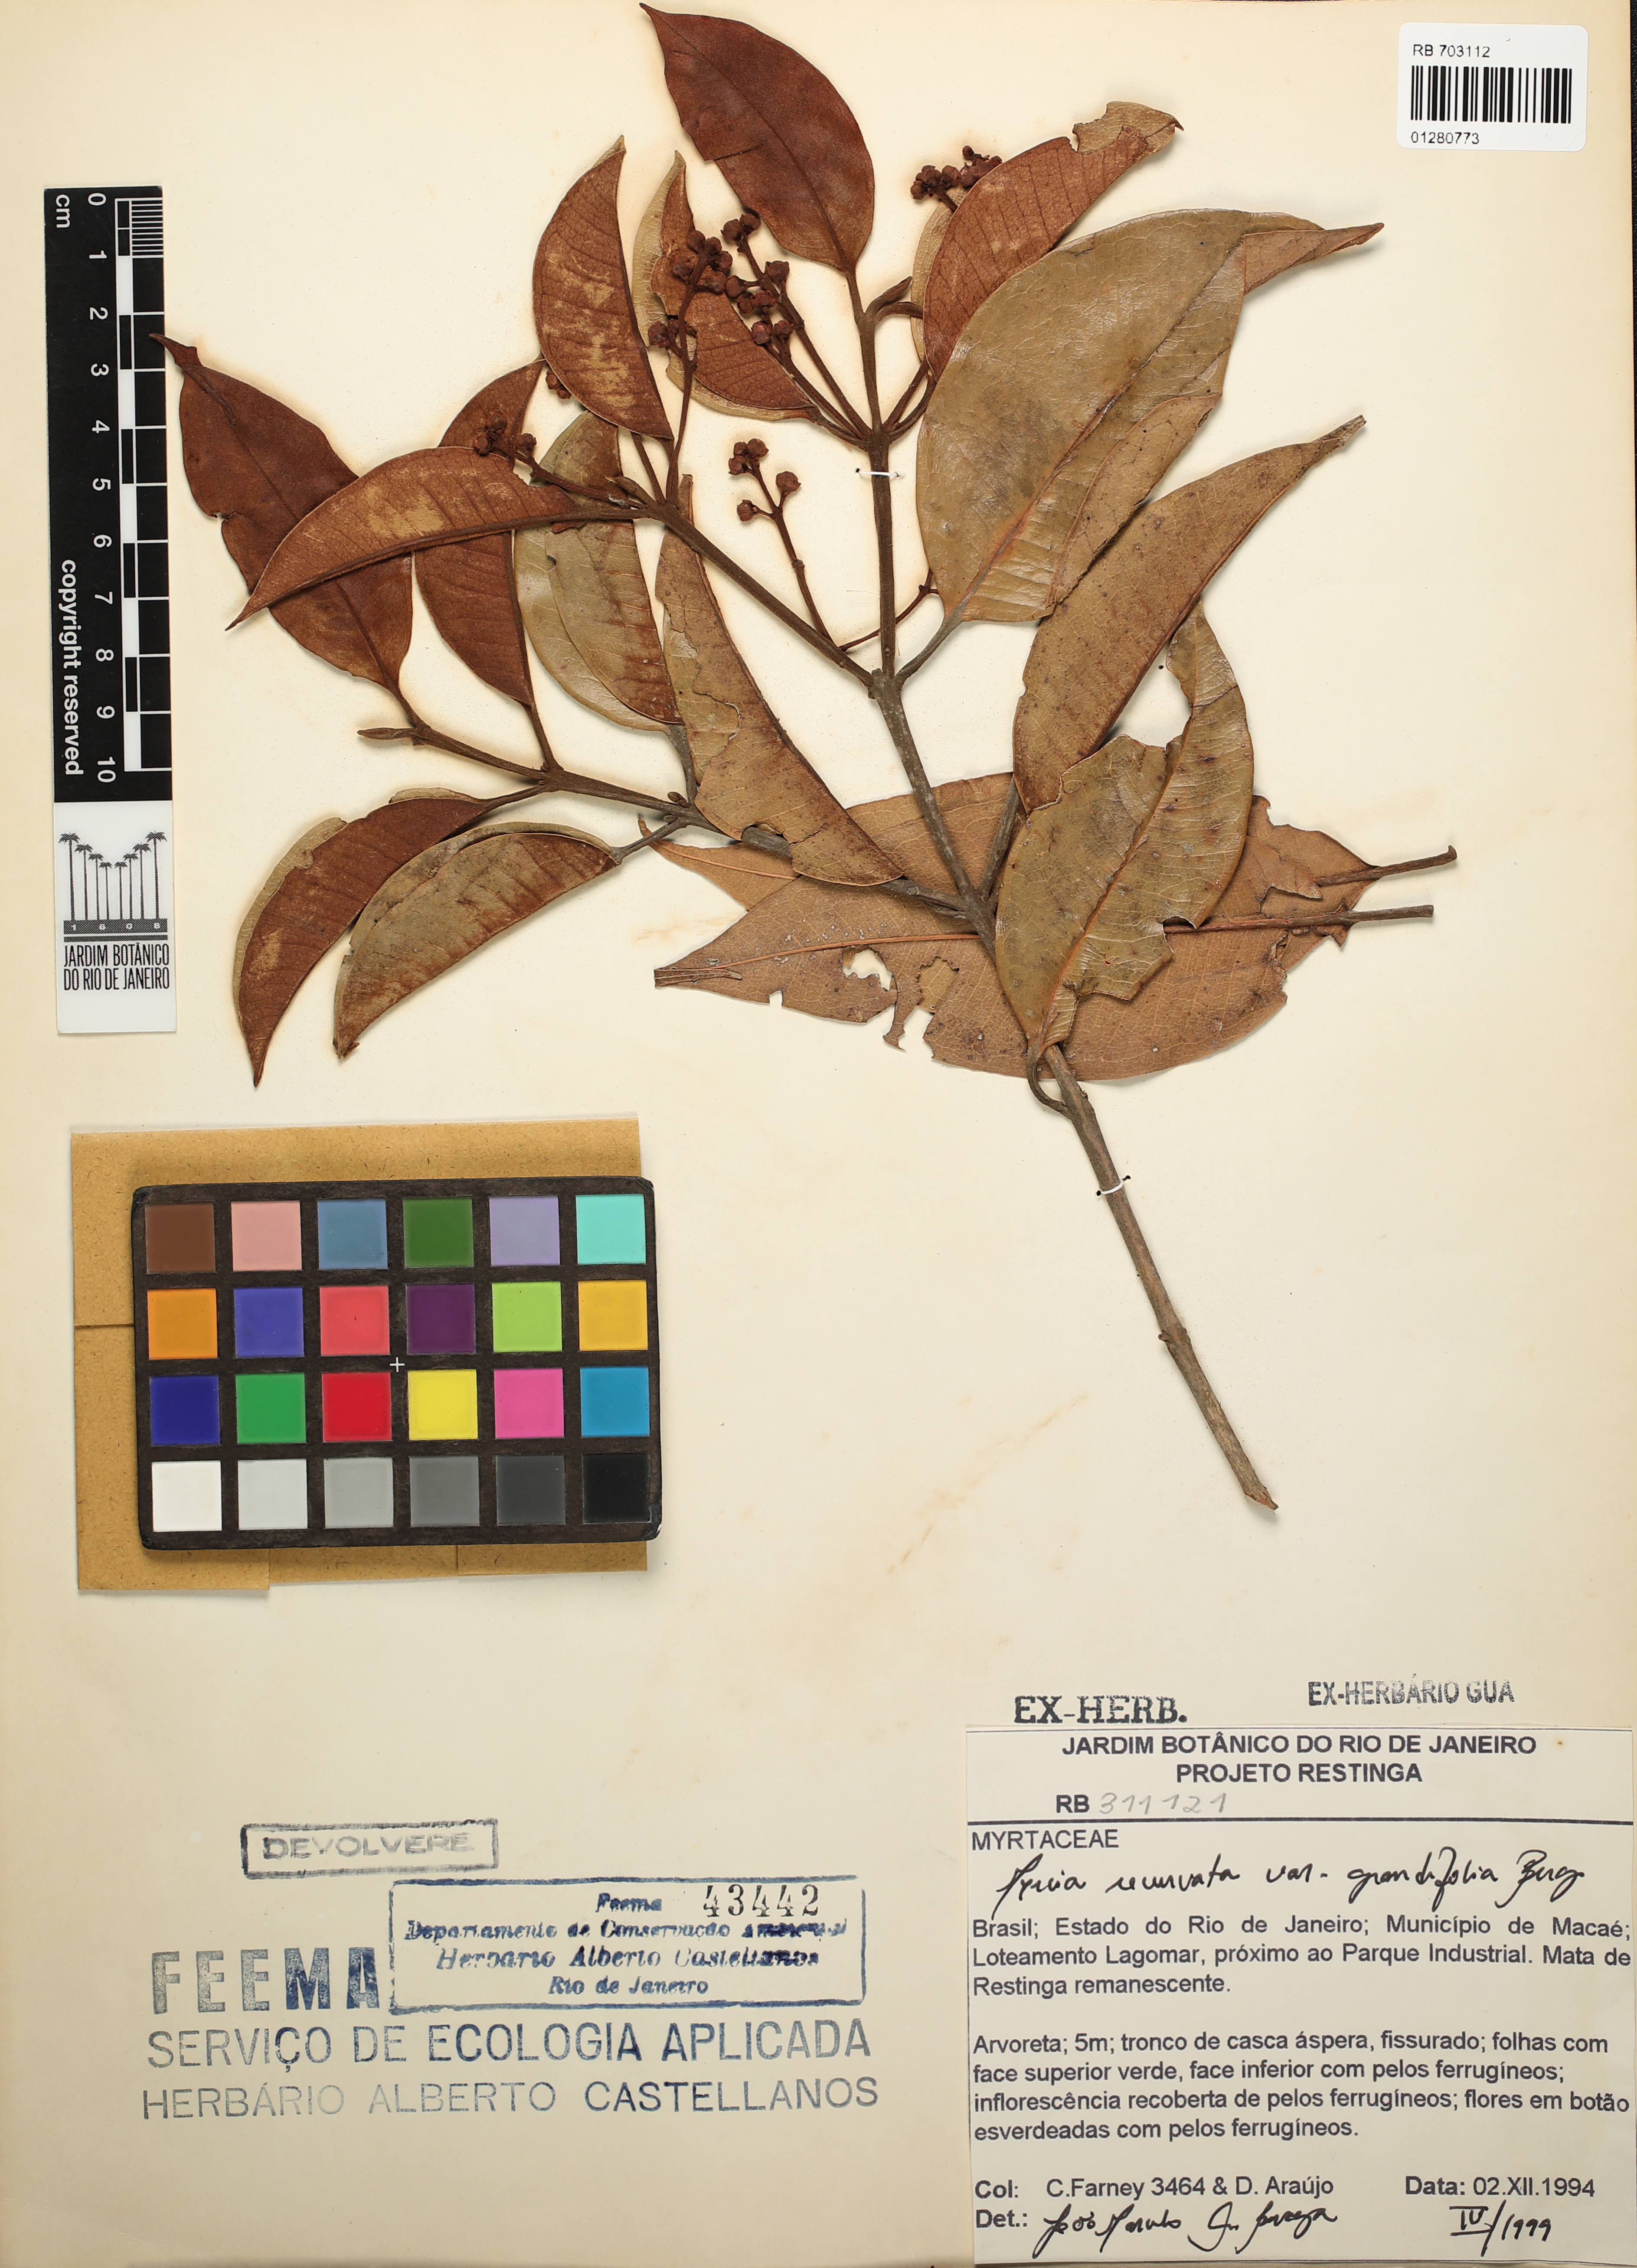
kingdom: Plantae
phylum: Tracheophyta
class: Magnoliopsida
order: Myrtales
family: Myrtaceae
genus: Myrcia
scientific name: Myrcia recurvata
